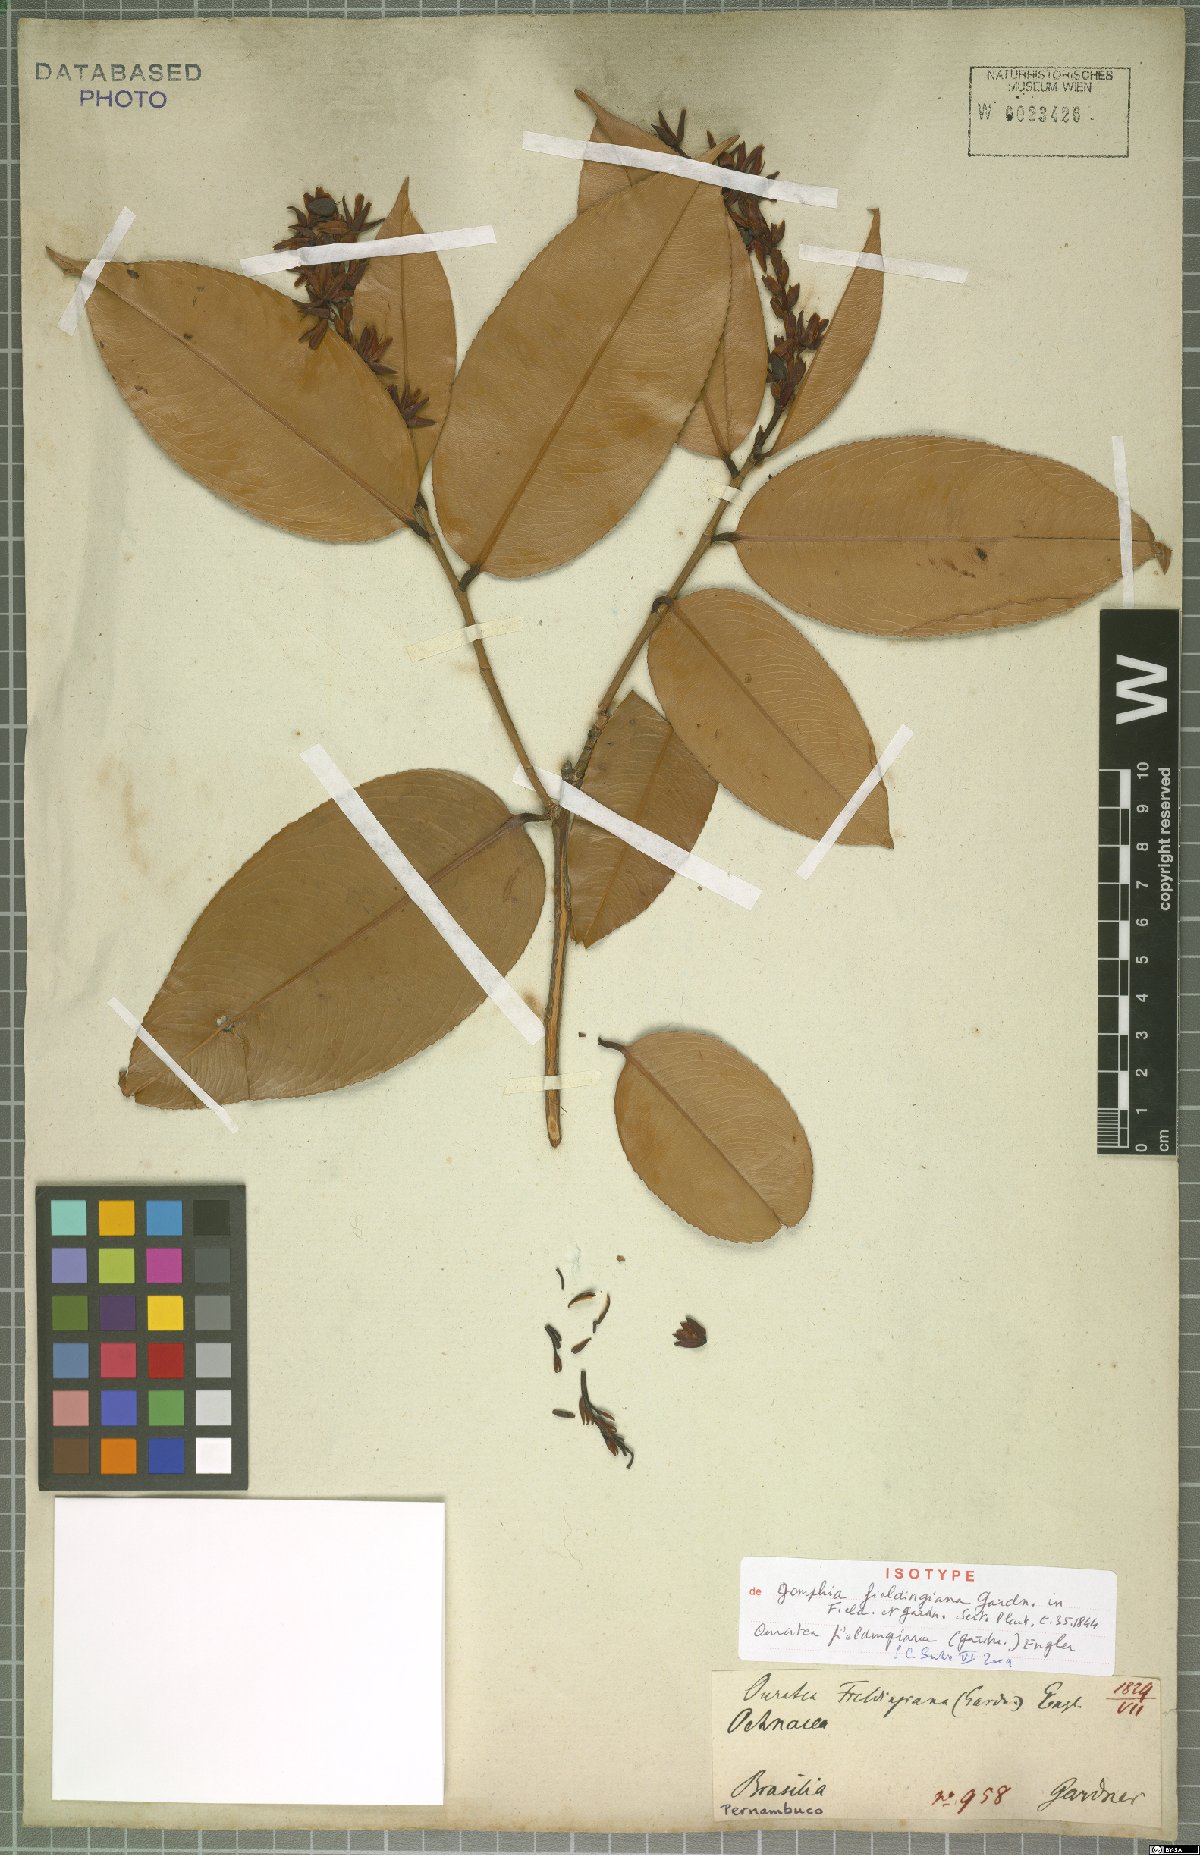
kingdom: Plantae
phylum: Tracheophyta
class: Magnoliopsida
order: Malpighiales
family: Ochnaceae
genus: Ouratea
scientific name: Ouratea fieldingiana
